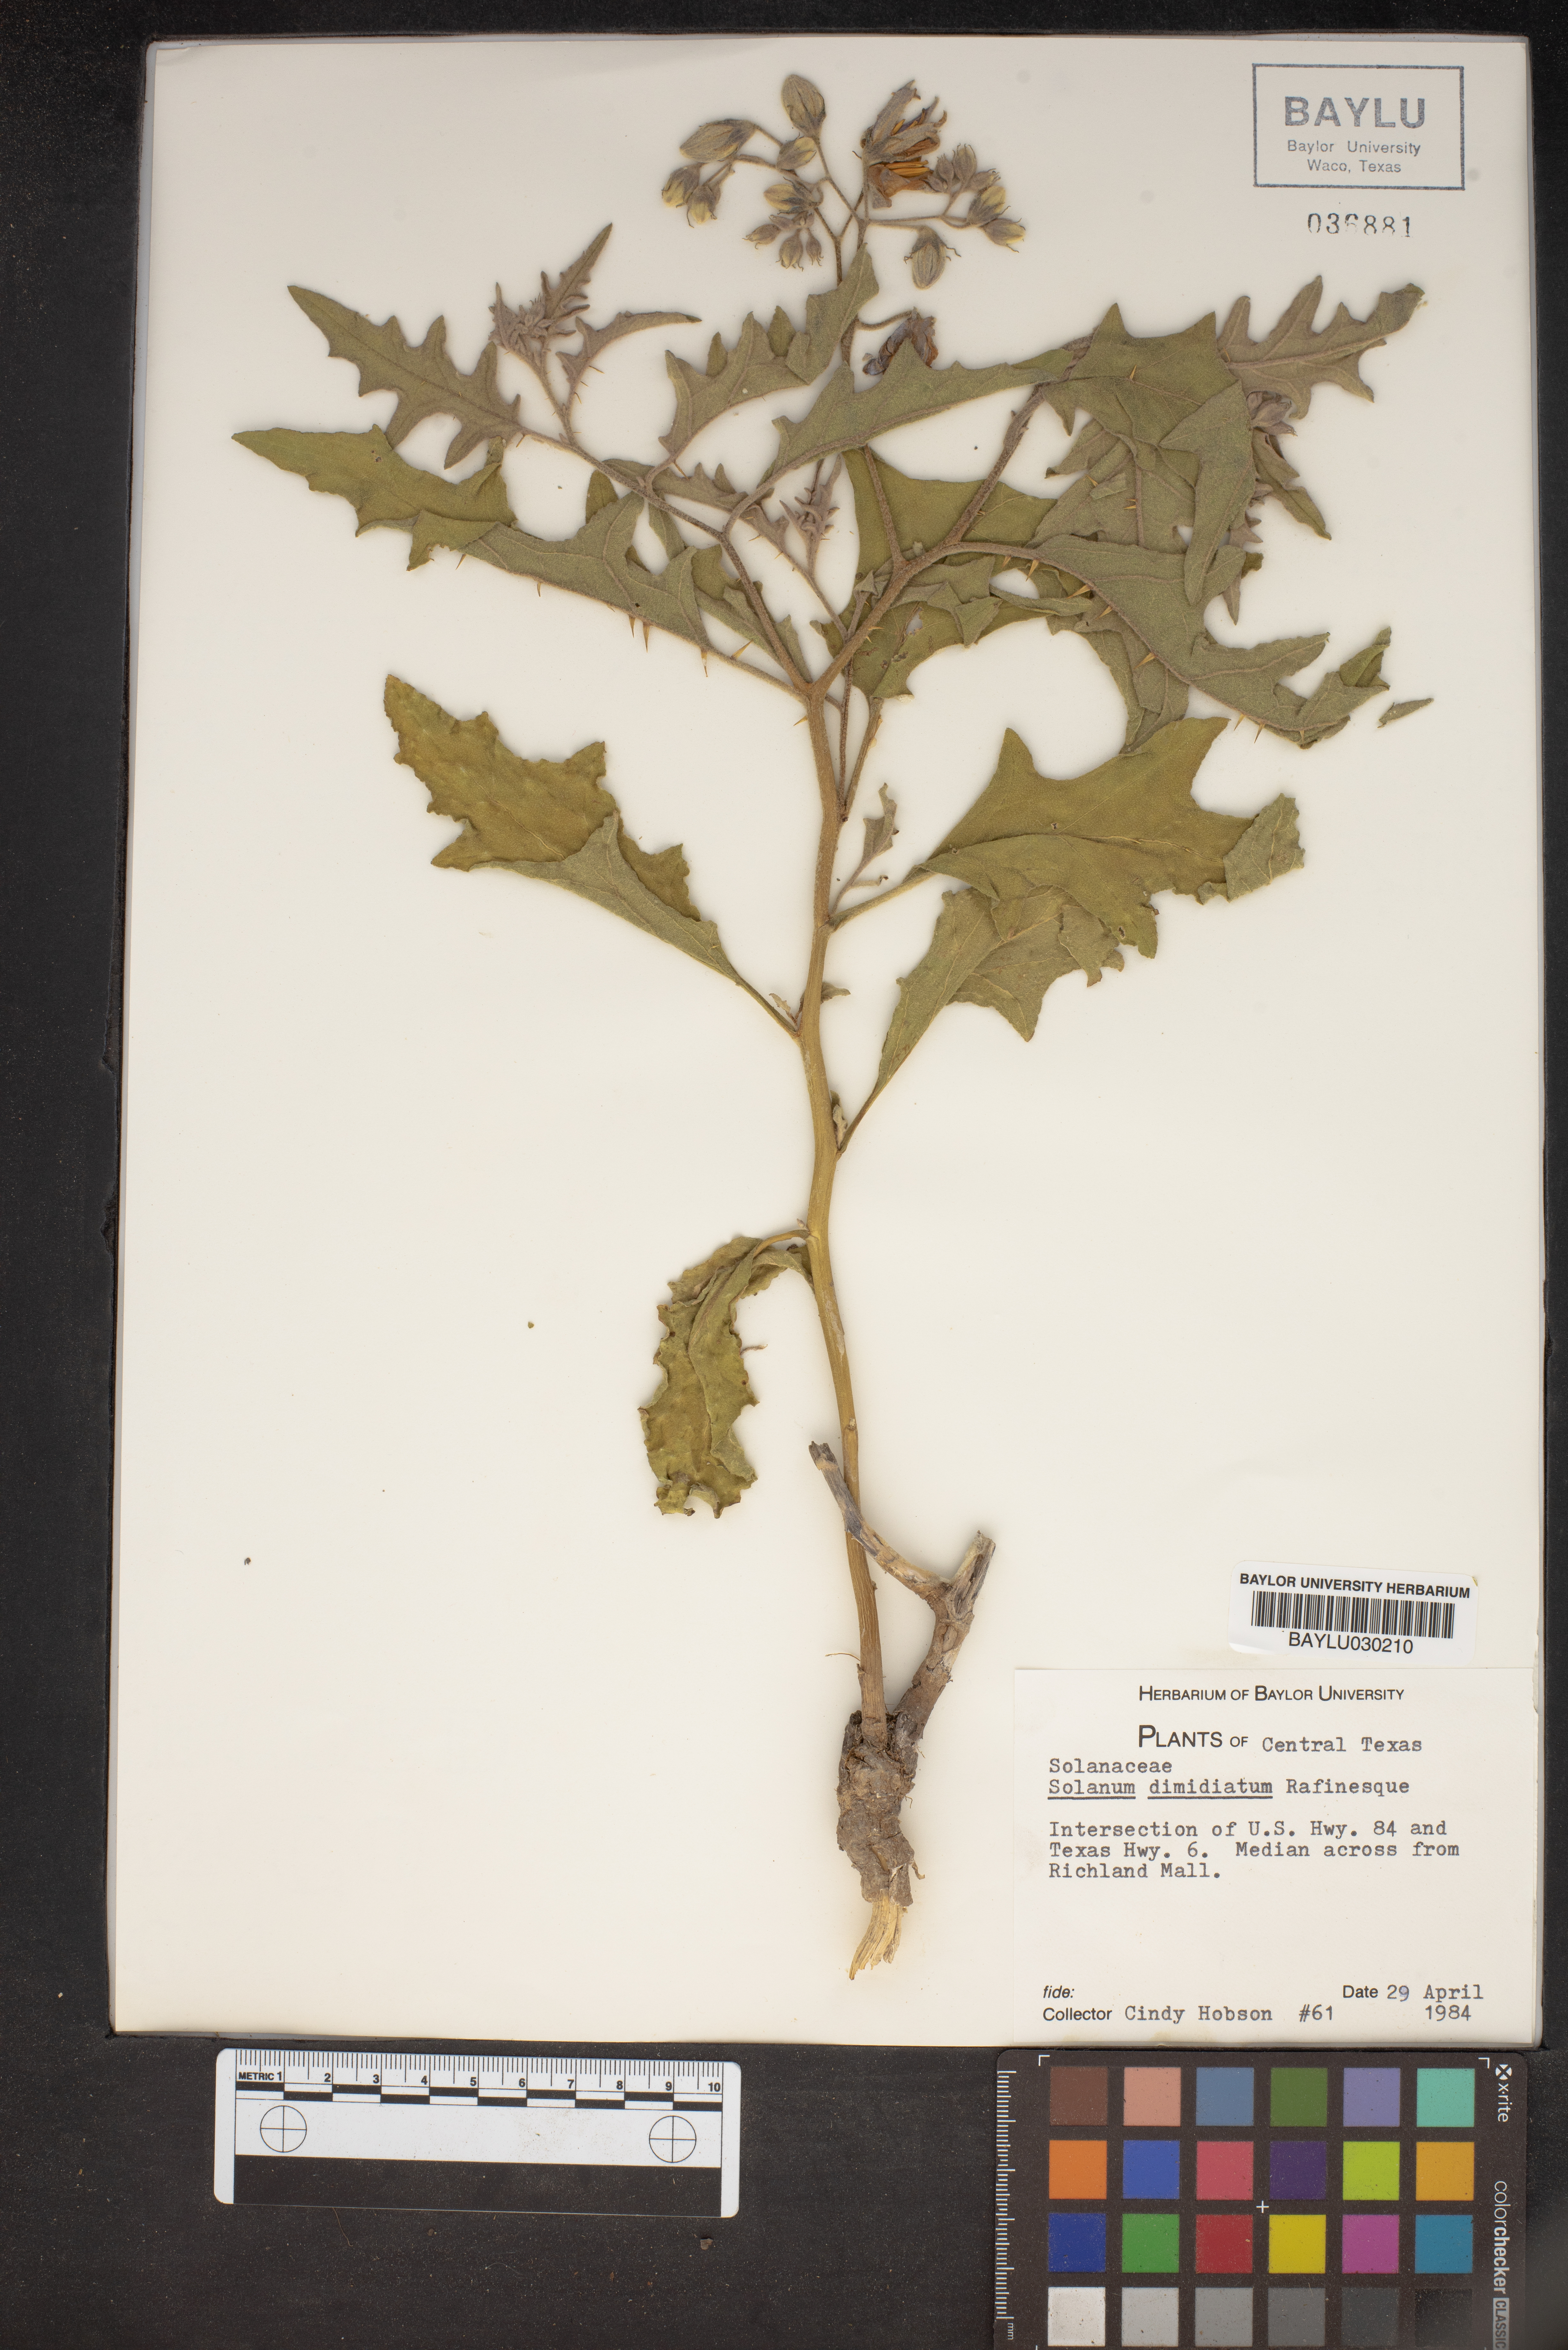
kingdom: Plantae
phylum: Tracheophyta
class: Magnoliopsida
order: Solanales
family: Solanaceae
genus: Solanum
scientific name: Solanum dimidiatum
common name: Carolina horse-nettle
